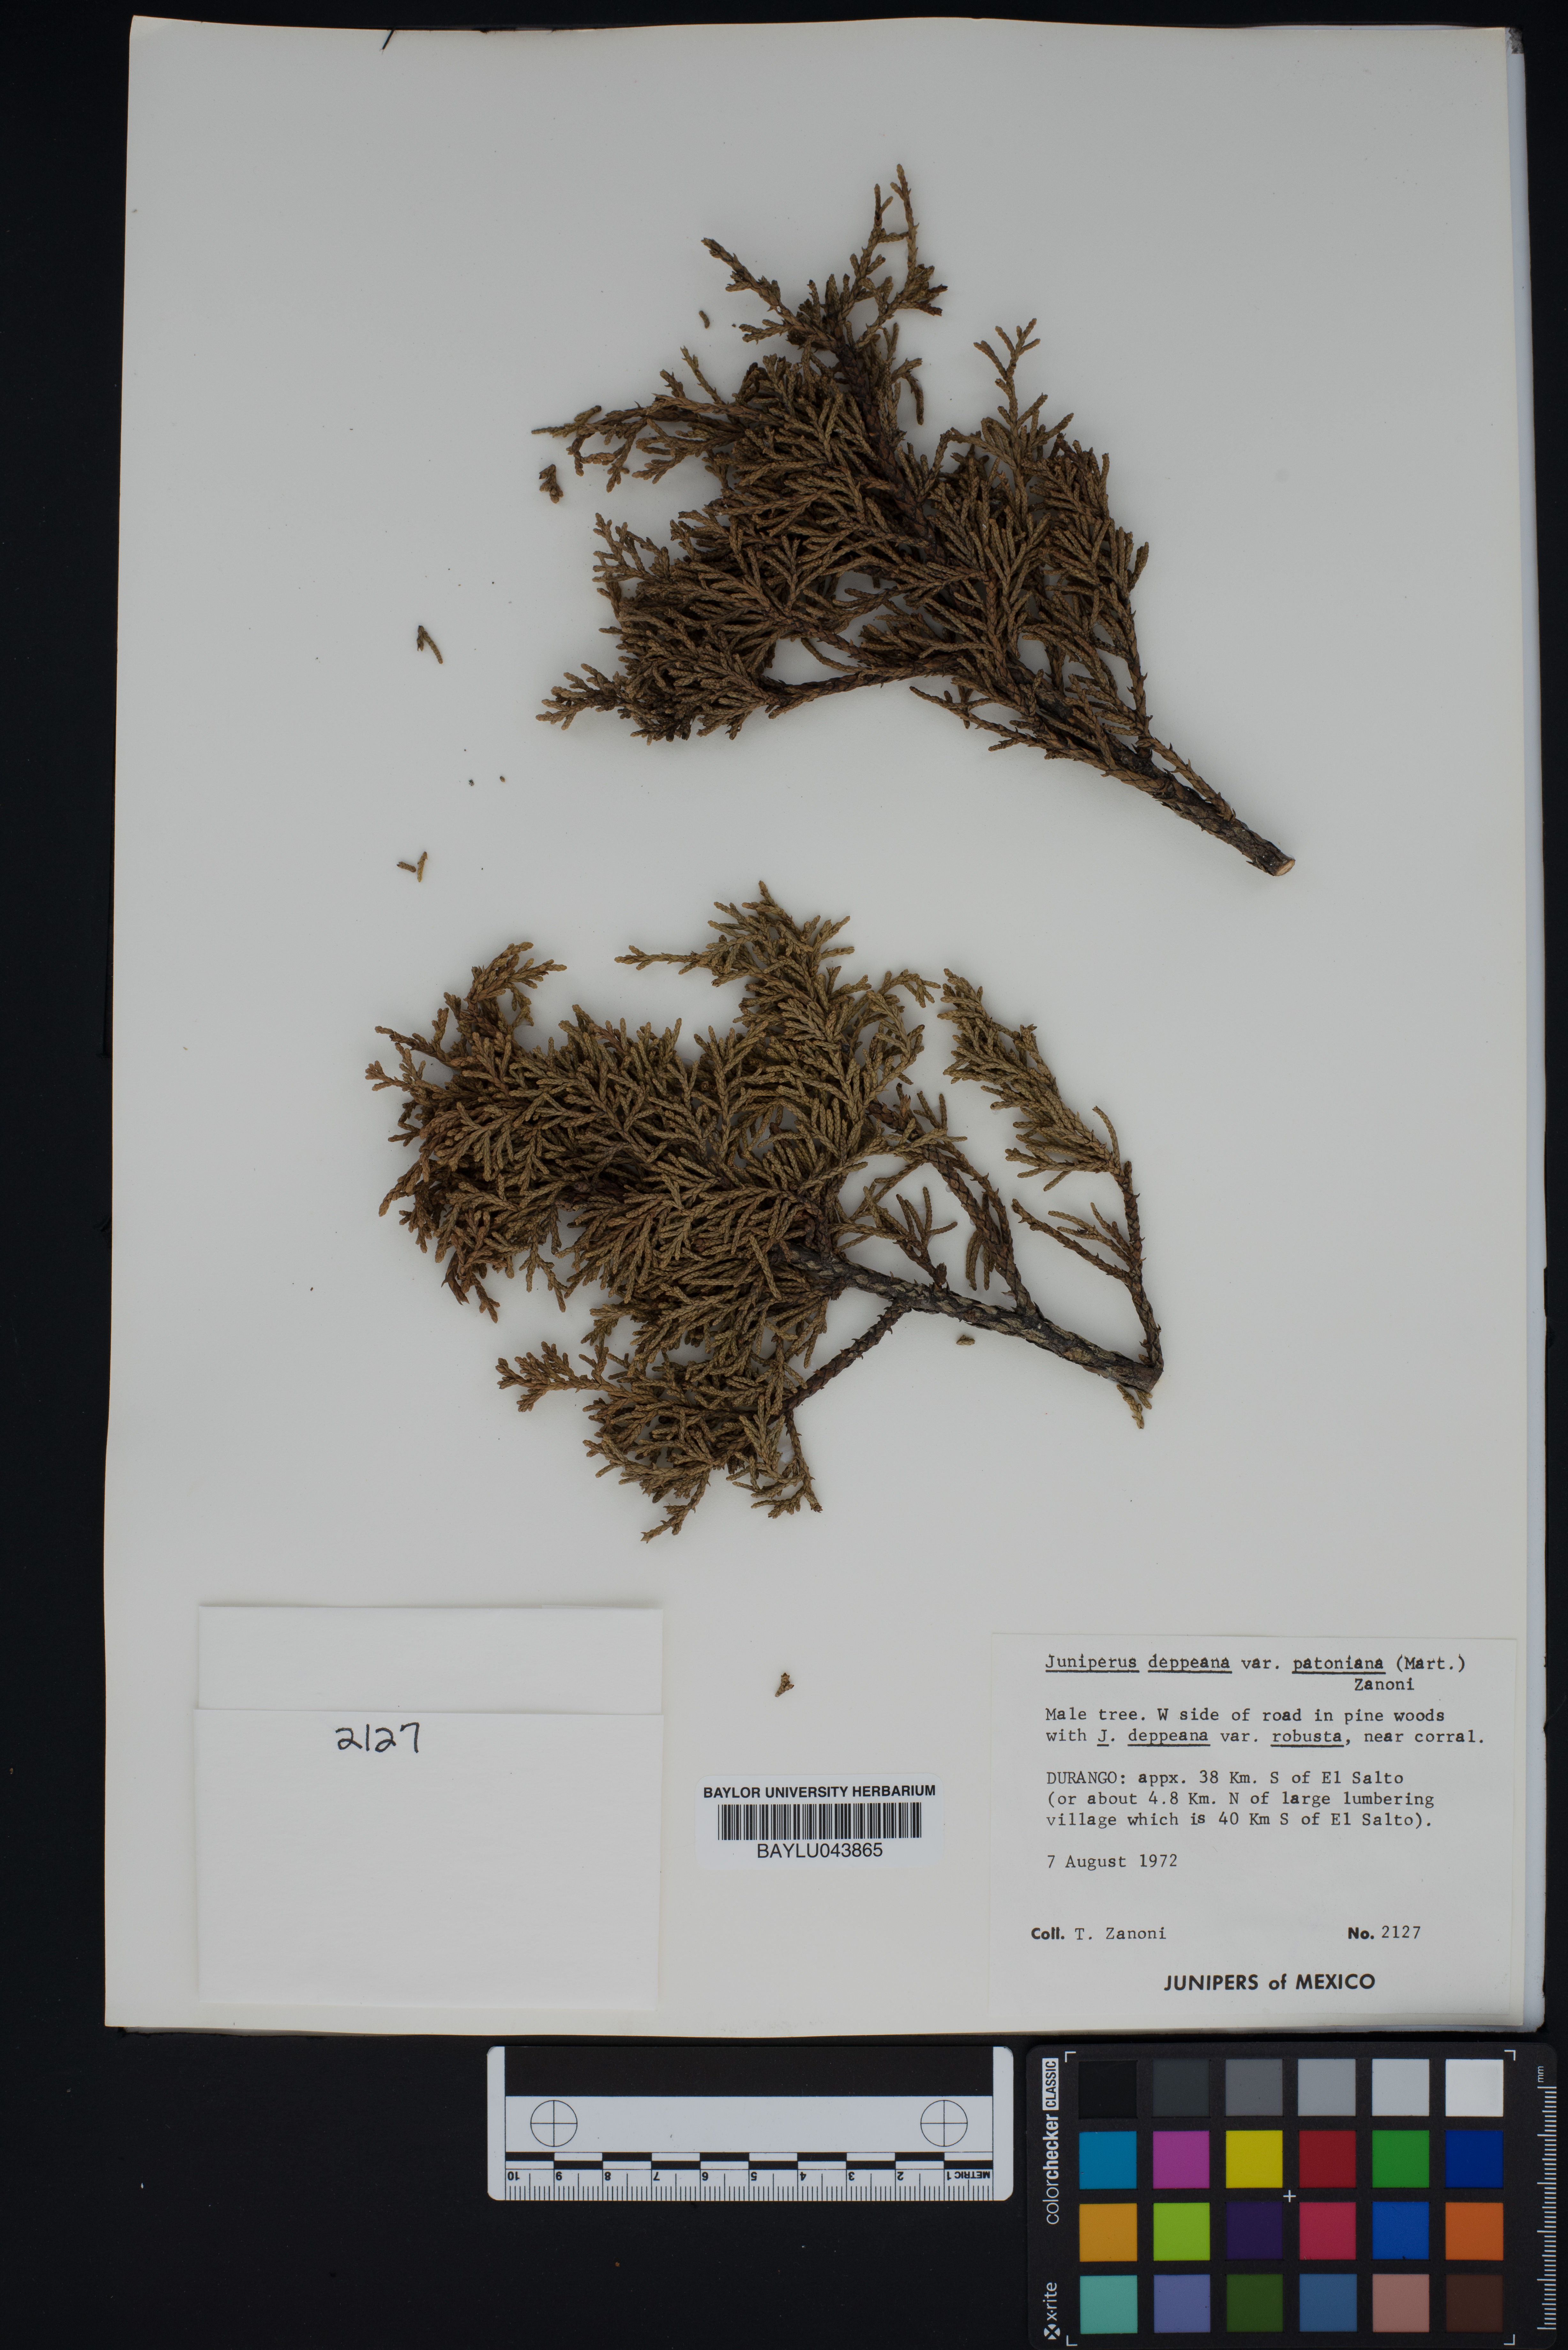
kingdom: Plantae
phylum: Tracheophyta
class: Pinopsida
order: Pinales
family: Cupressaceae
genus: Juniperus
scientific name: Juniperus deppeana
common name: Alligator juniper
